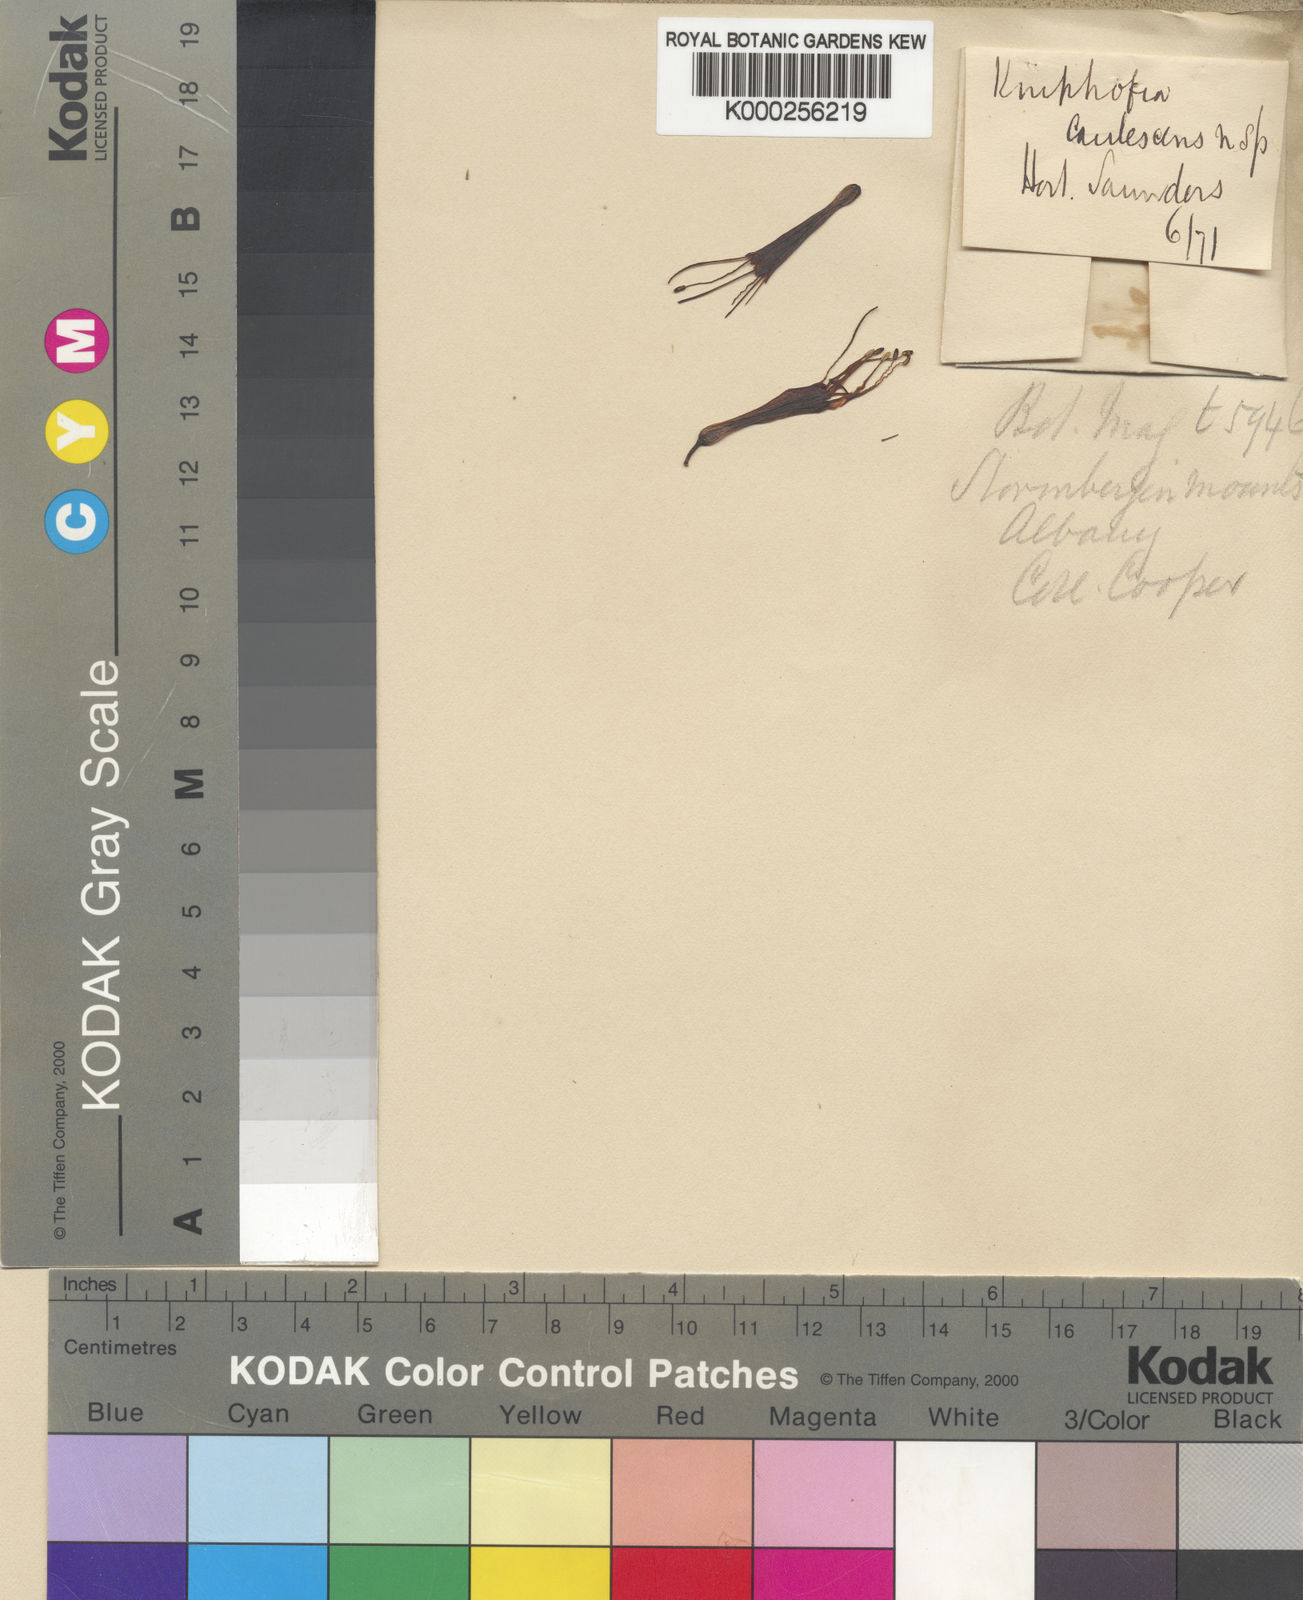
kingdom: Plantae
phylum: Tracheophyta
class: Liliopsida
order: Asparagales
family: Asphodelaceae
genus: Kniphofia
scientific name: Kniphofia caulescens
